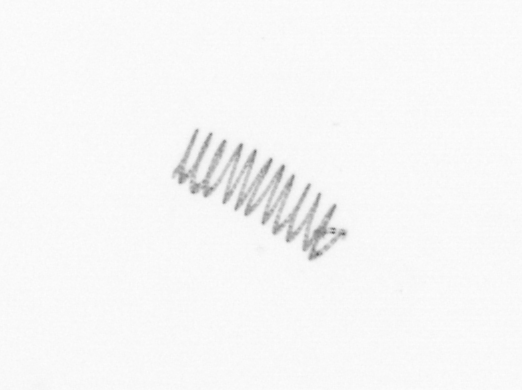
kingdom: Chromista
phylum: Ochrophyta
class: Bacillariophyceae
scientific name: Bacillariophyceae
